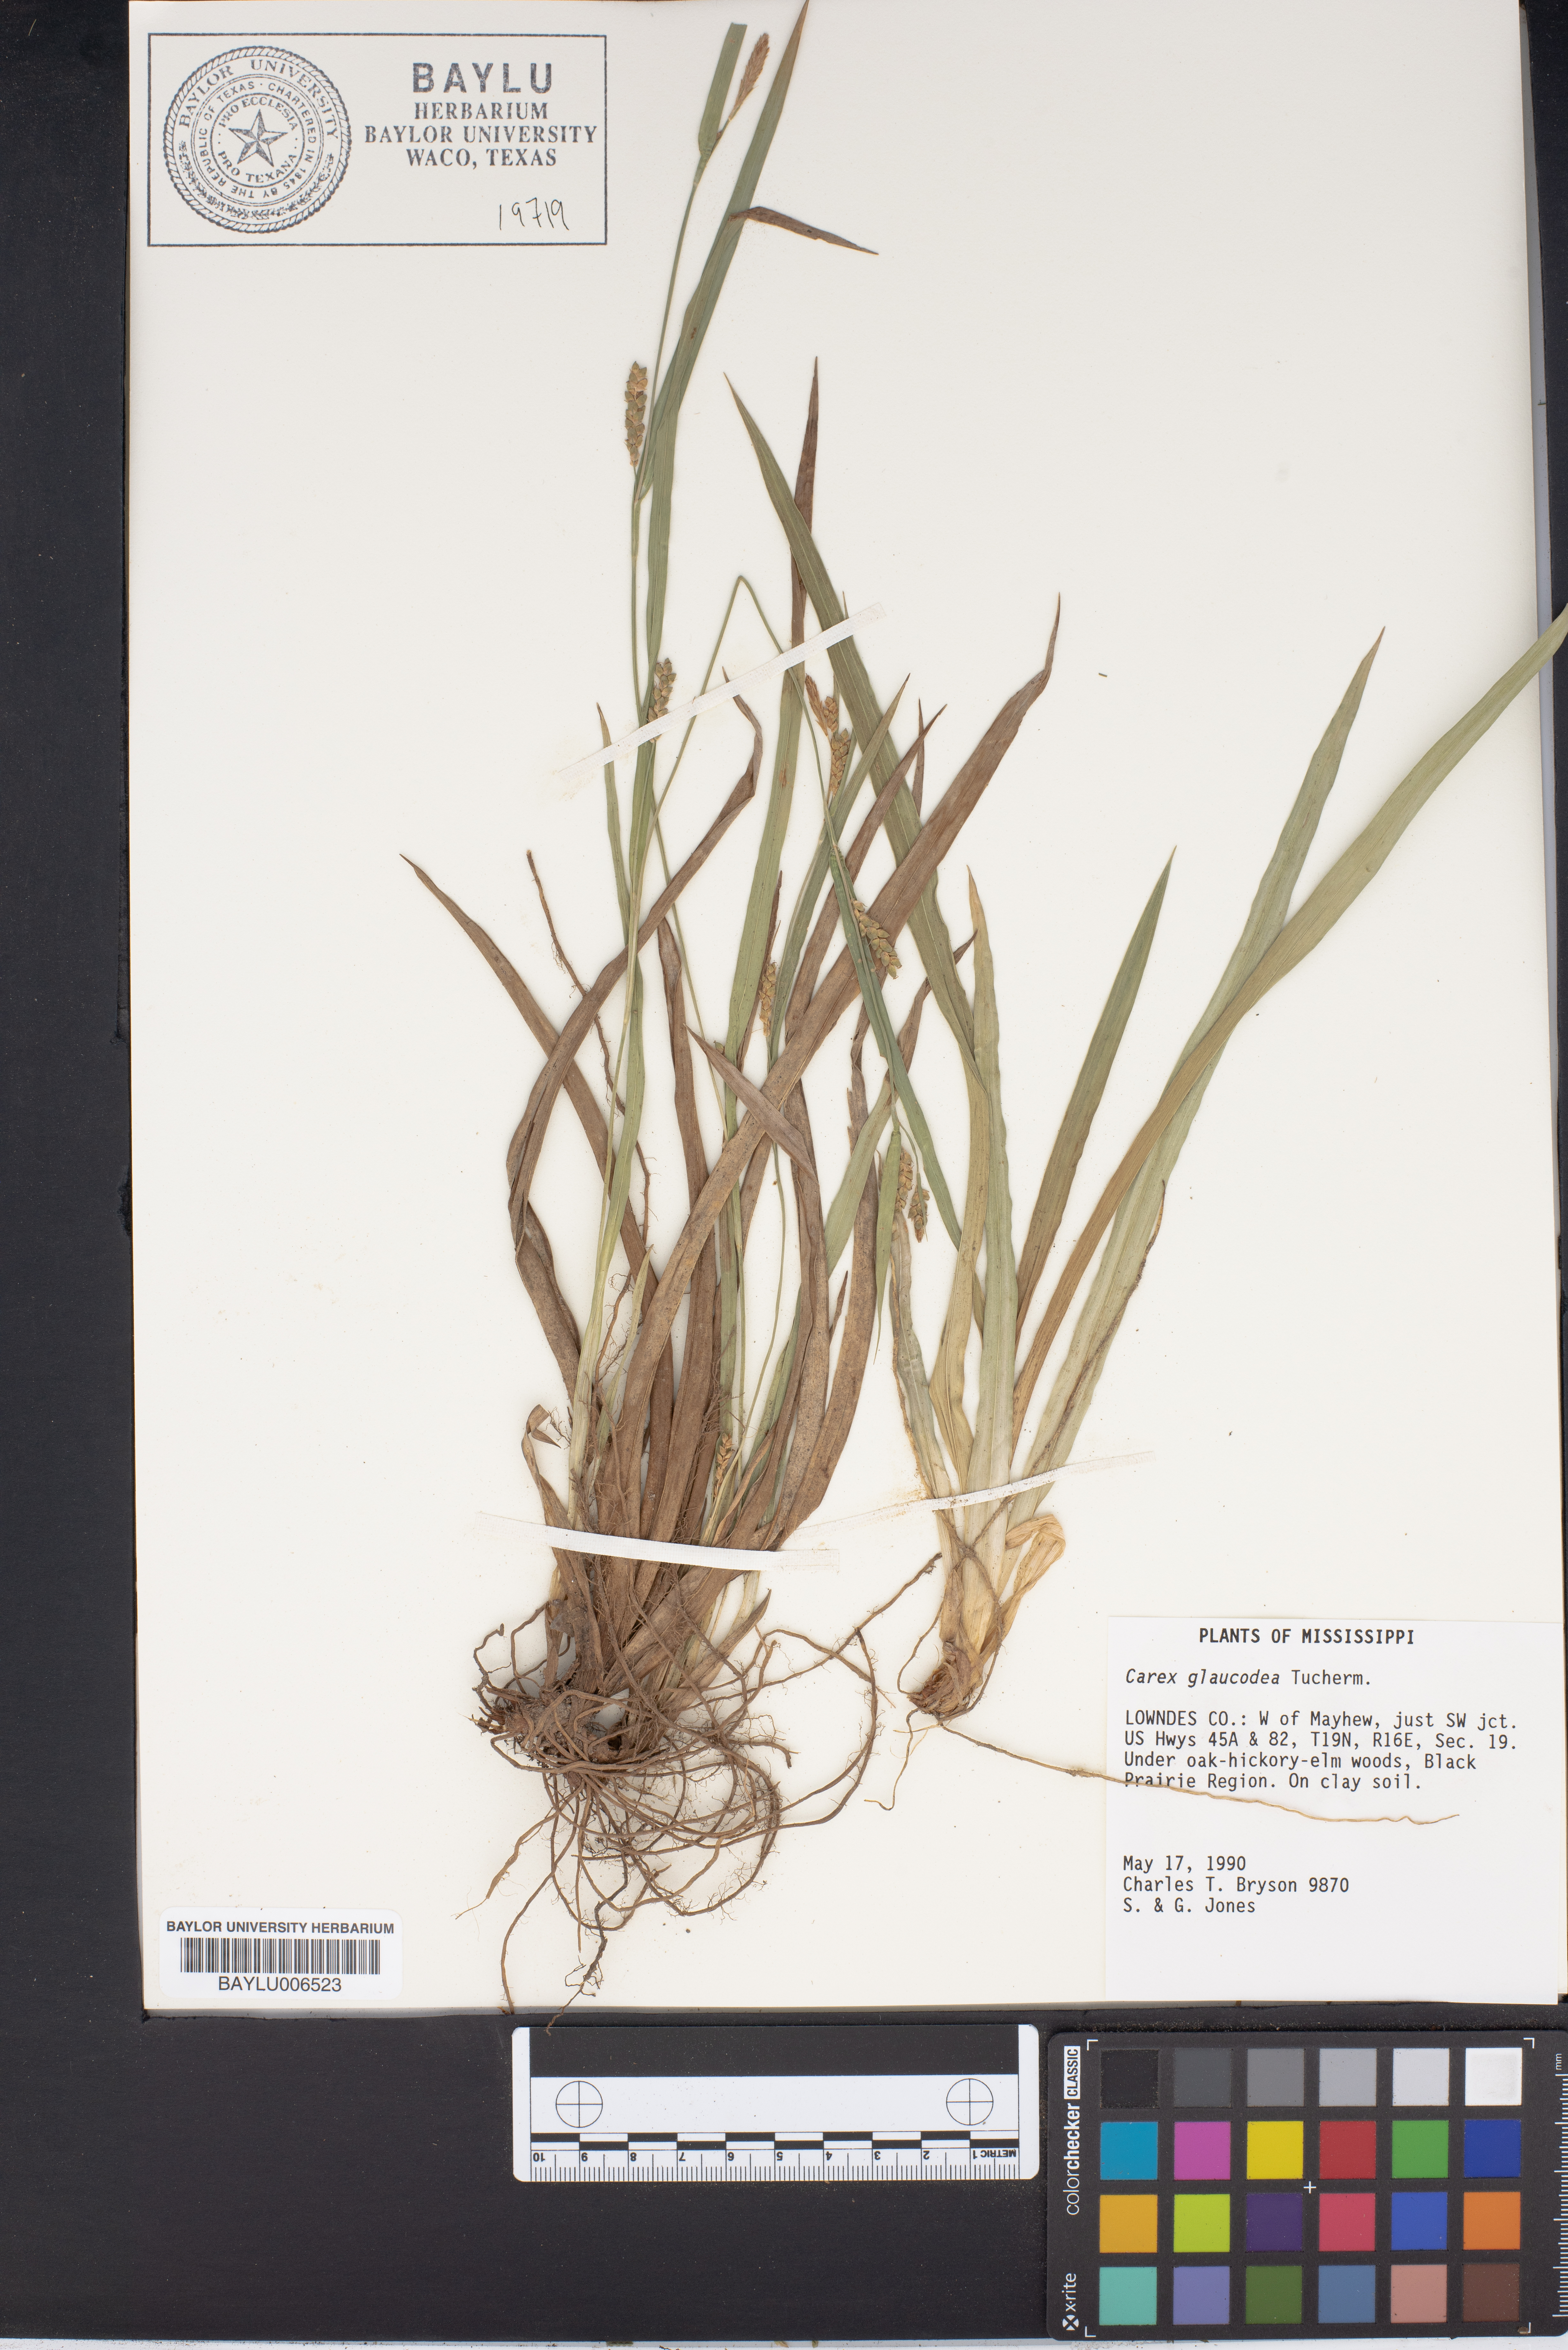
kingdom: Plantae
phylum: Tracheophyta
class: Liliopsida
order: Poales
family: Cyperaceae
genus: Carex
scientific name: Carex glaucodea
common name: Blue sedge
